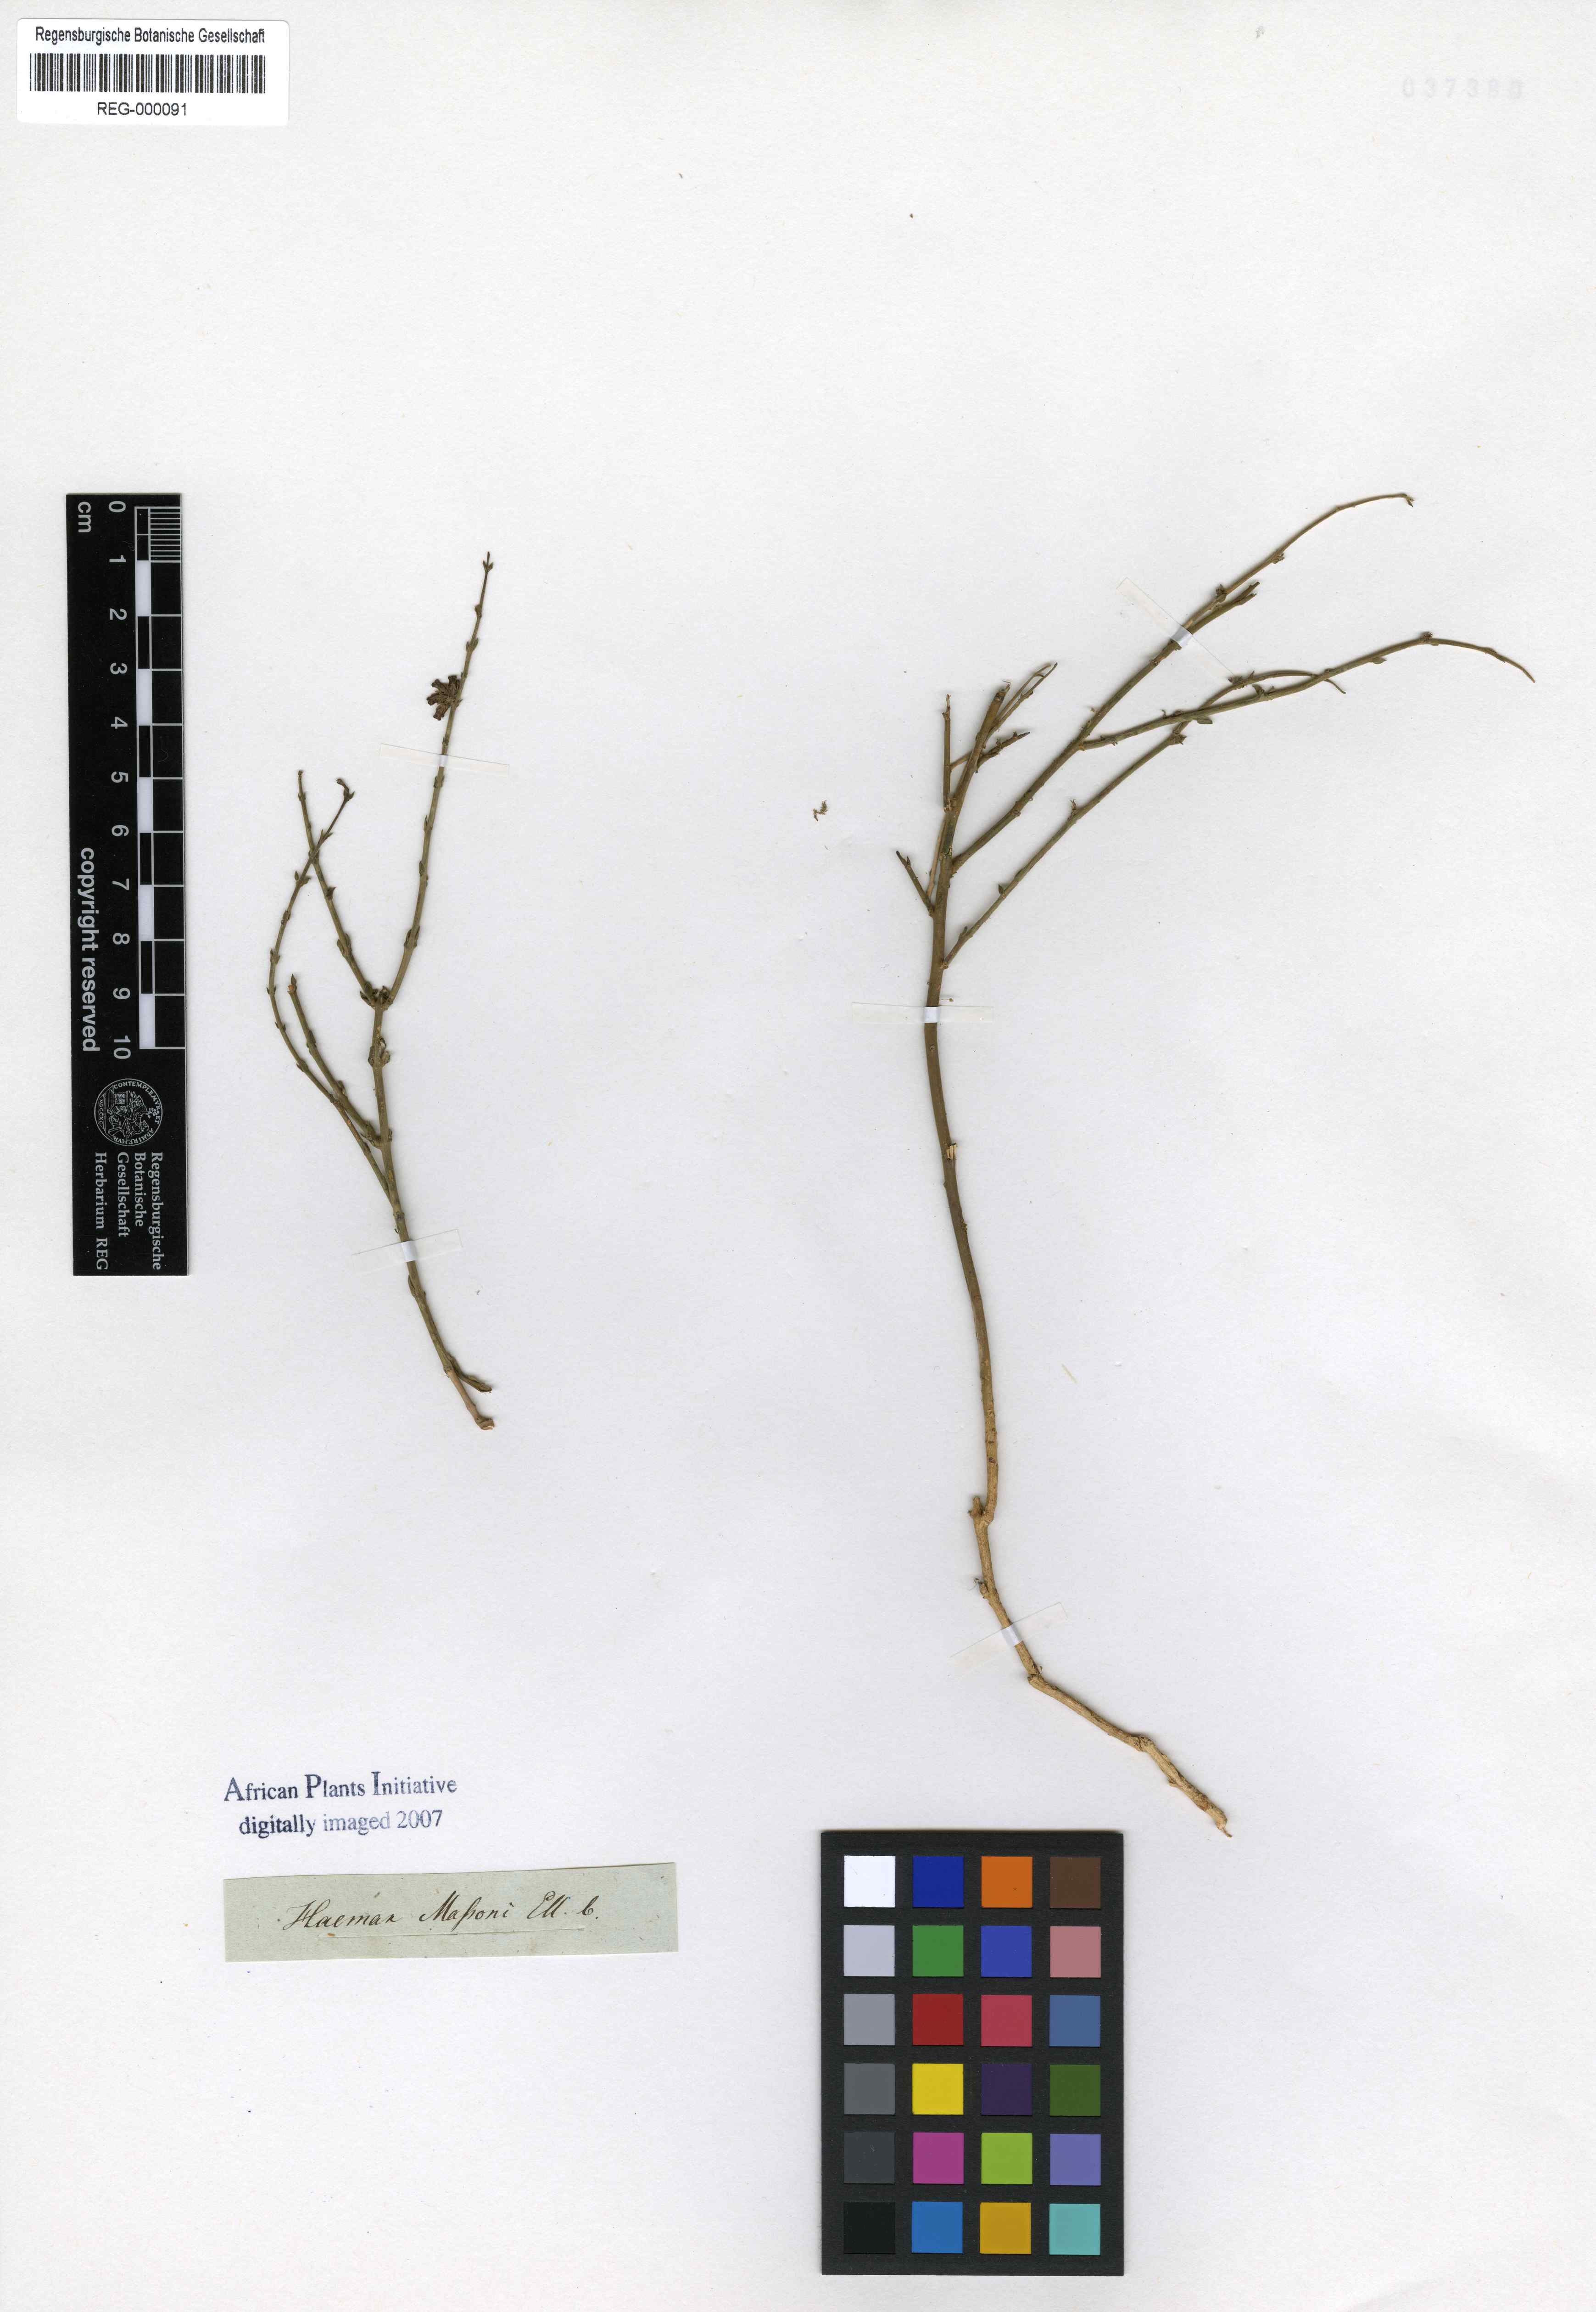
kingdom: Plantae
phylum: Tracheophyta
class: Magnoliopsida
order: Gentianales
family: Apocynaceae
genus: Microloma
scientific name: Microloma armatum
